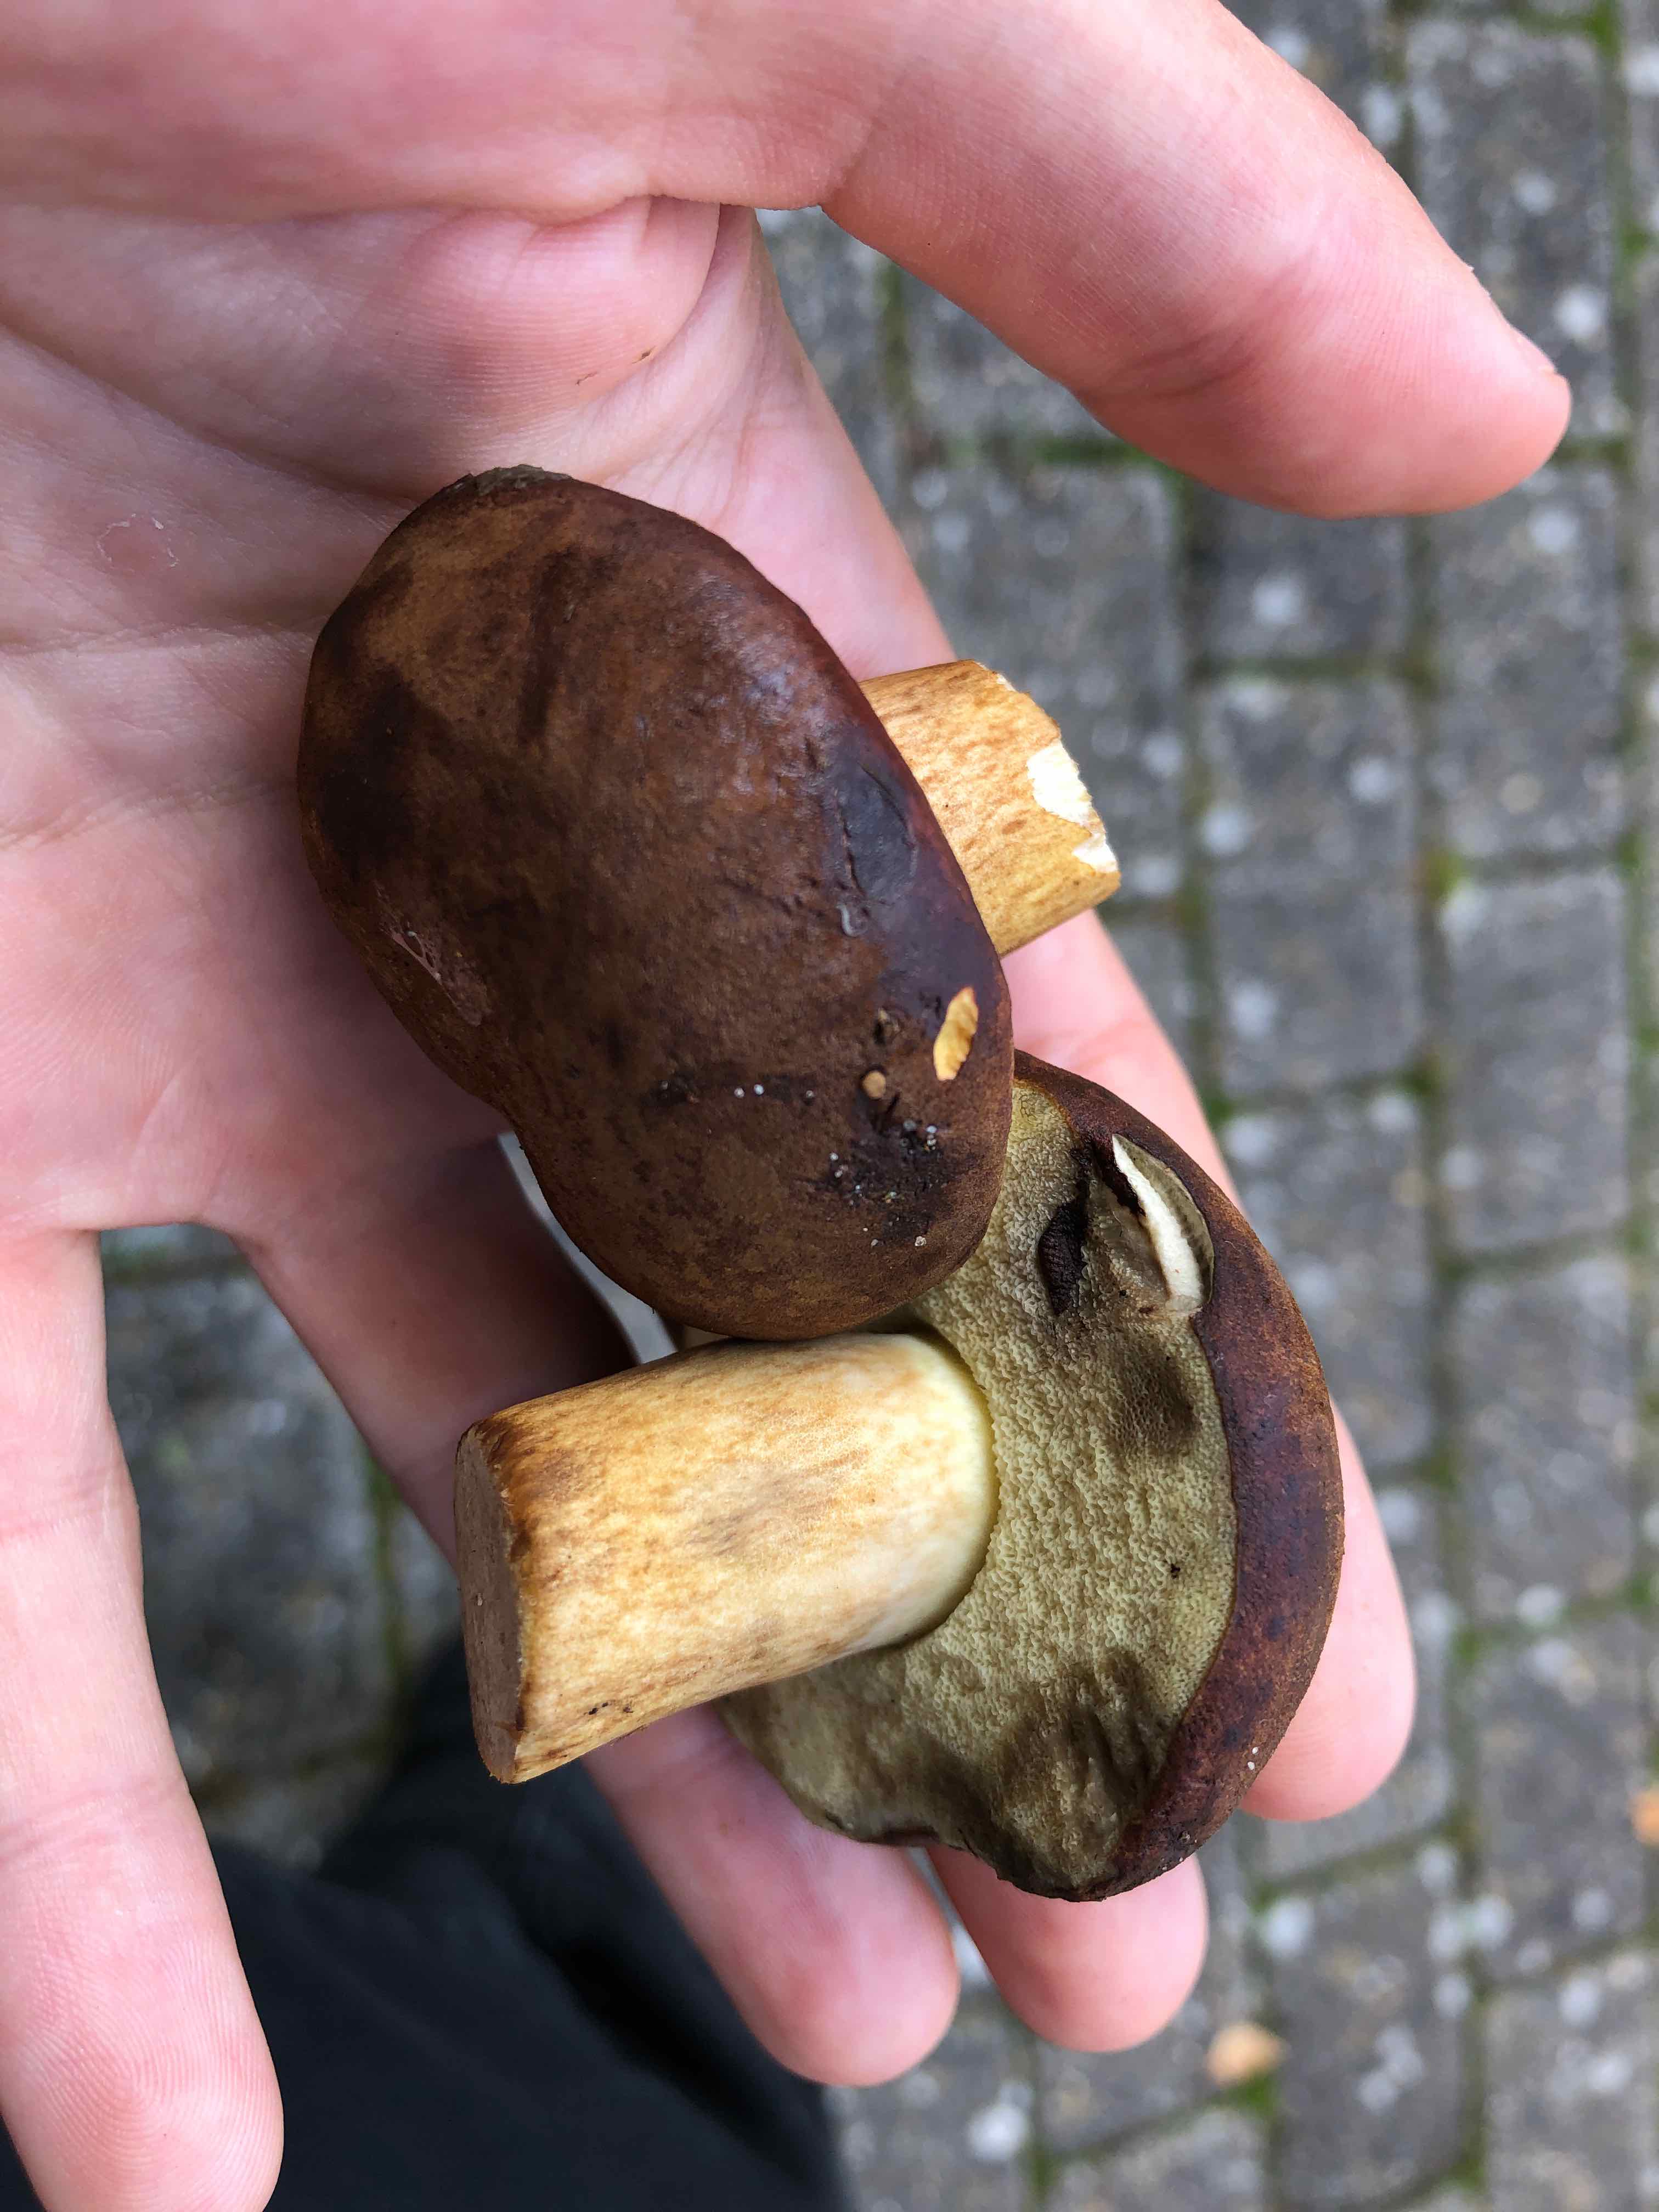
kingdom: Fungi
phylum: Basidiomycota
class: Agaricomycetes
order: Boletales
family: Boletaceae
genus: Imleria
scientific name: Imleria badia
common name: brunstokket rørhat
